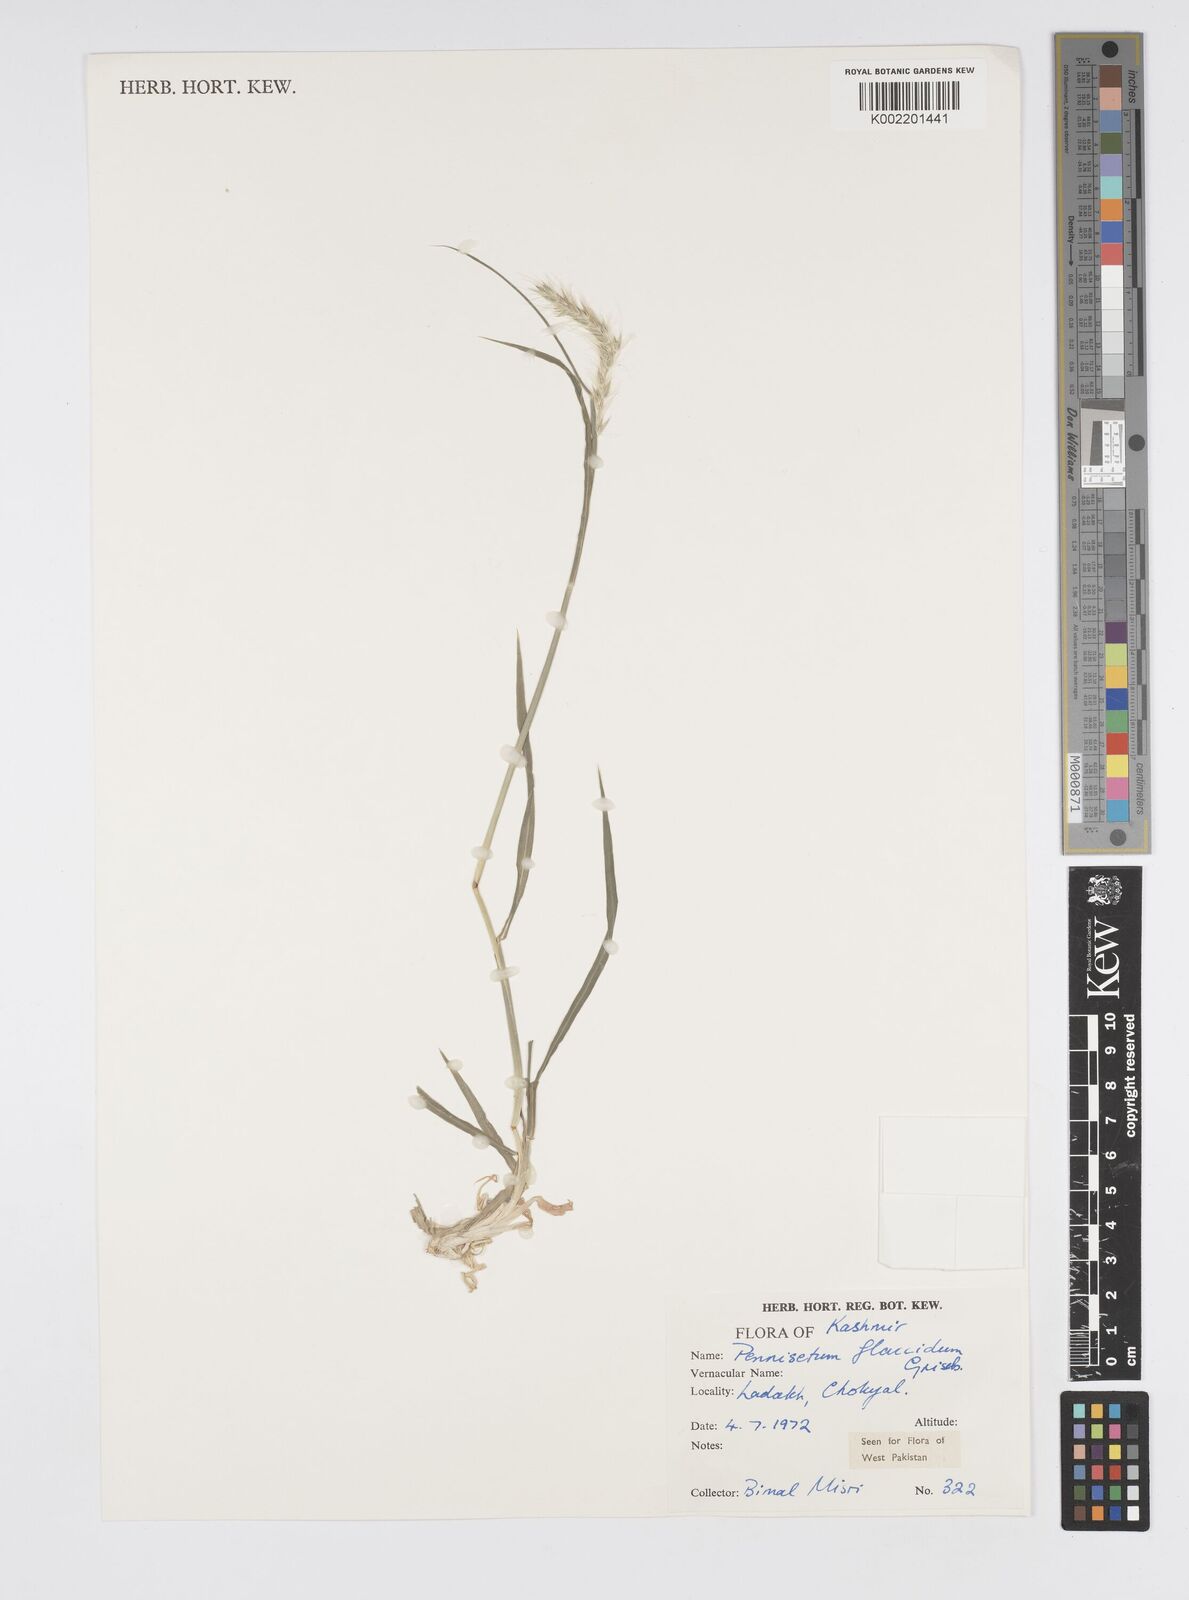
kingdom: Plantae
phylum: Tracheophyta
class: Liliopsida
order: Poales
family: Poaceae
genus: Cenchrus
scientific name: Cenchrus flaccidus
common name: Flaccid grass
